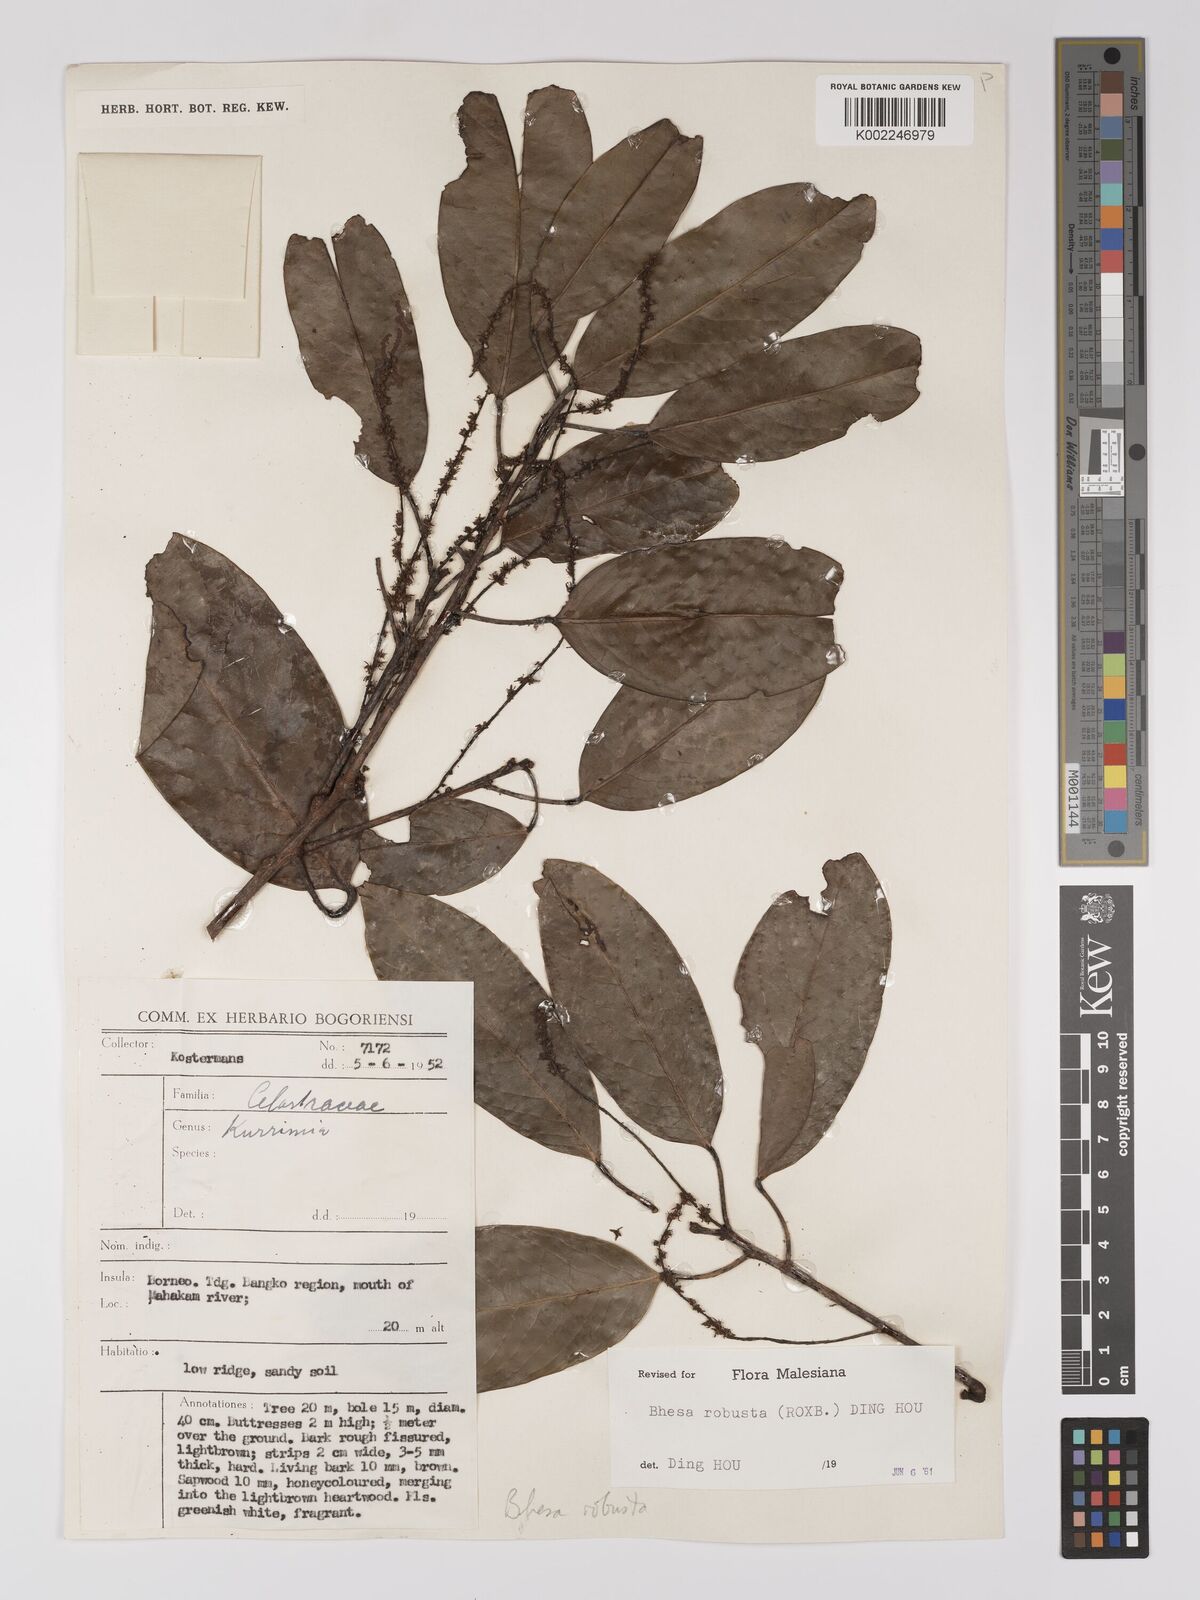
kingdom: Plantae
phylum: Tracheophyta
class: Magnoliopsida
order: Malpighiales
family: Centroplacaceae
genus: Bhesa
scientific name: Bhesa robusta
